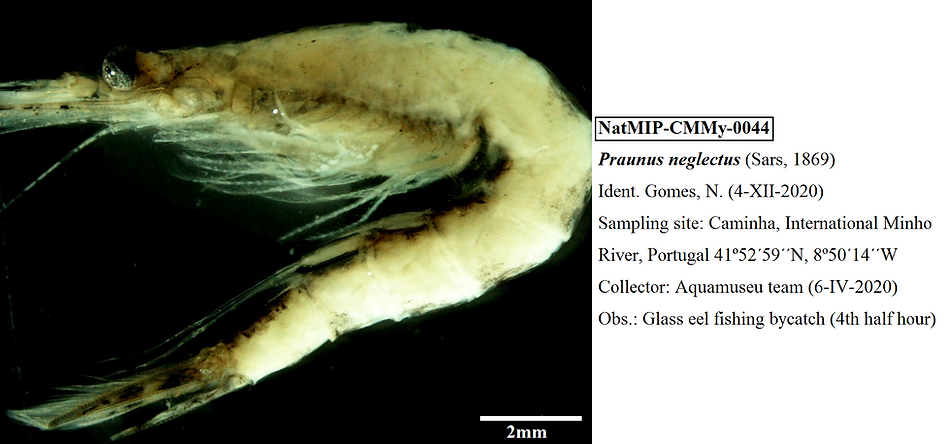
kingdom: Animalia
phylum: Arthropoda
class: Malacostraca
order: Mysida
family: Mysidae
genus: Praunus
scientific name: Praunus neglectus
